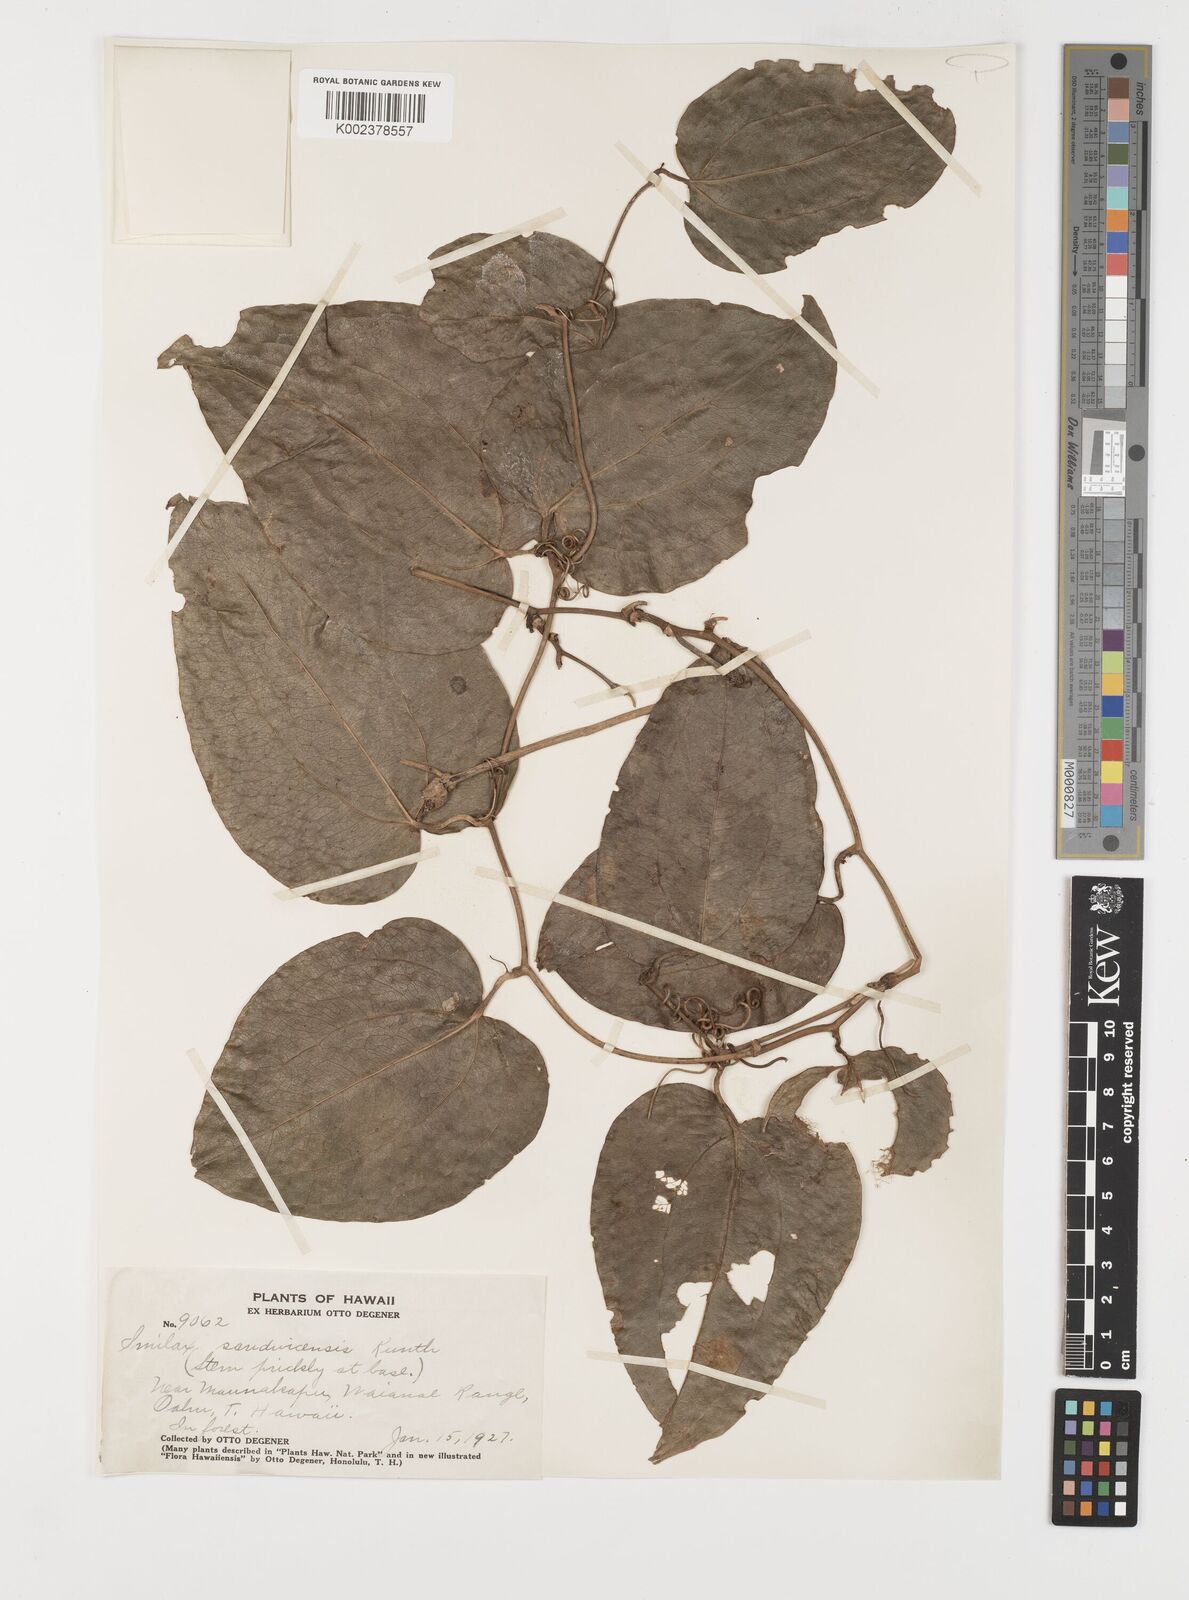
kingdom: Plantae
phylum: Tracheophyta
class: Liliopsida
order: Liliales
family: Smilacaceae
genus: Smilax
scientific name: Smilax melastomifolia
